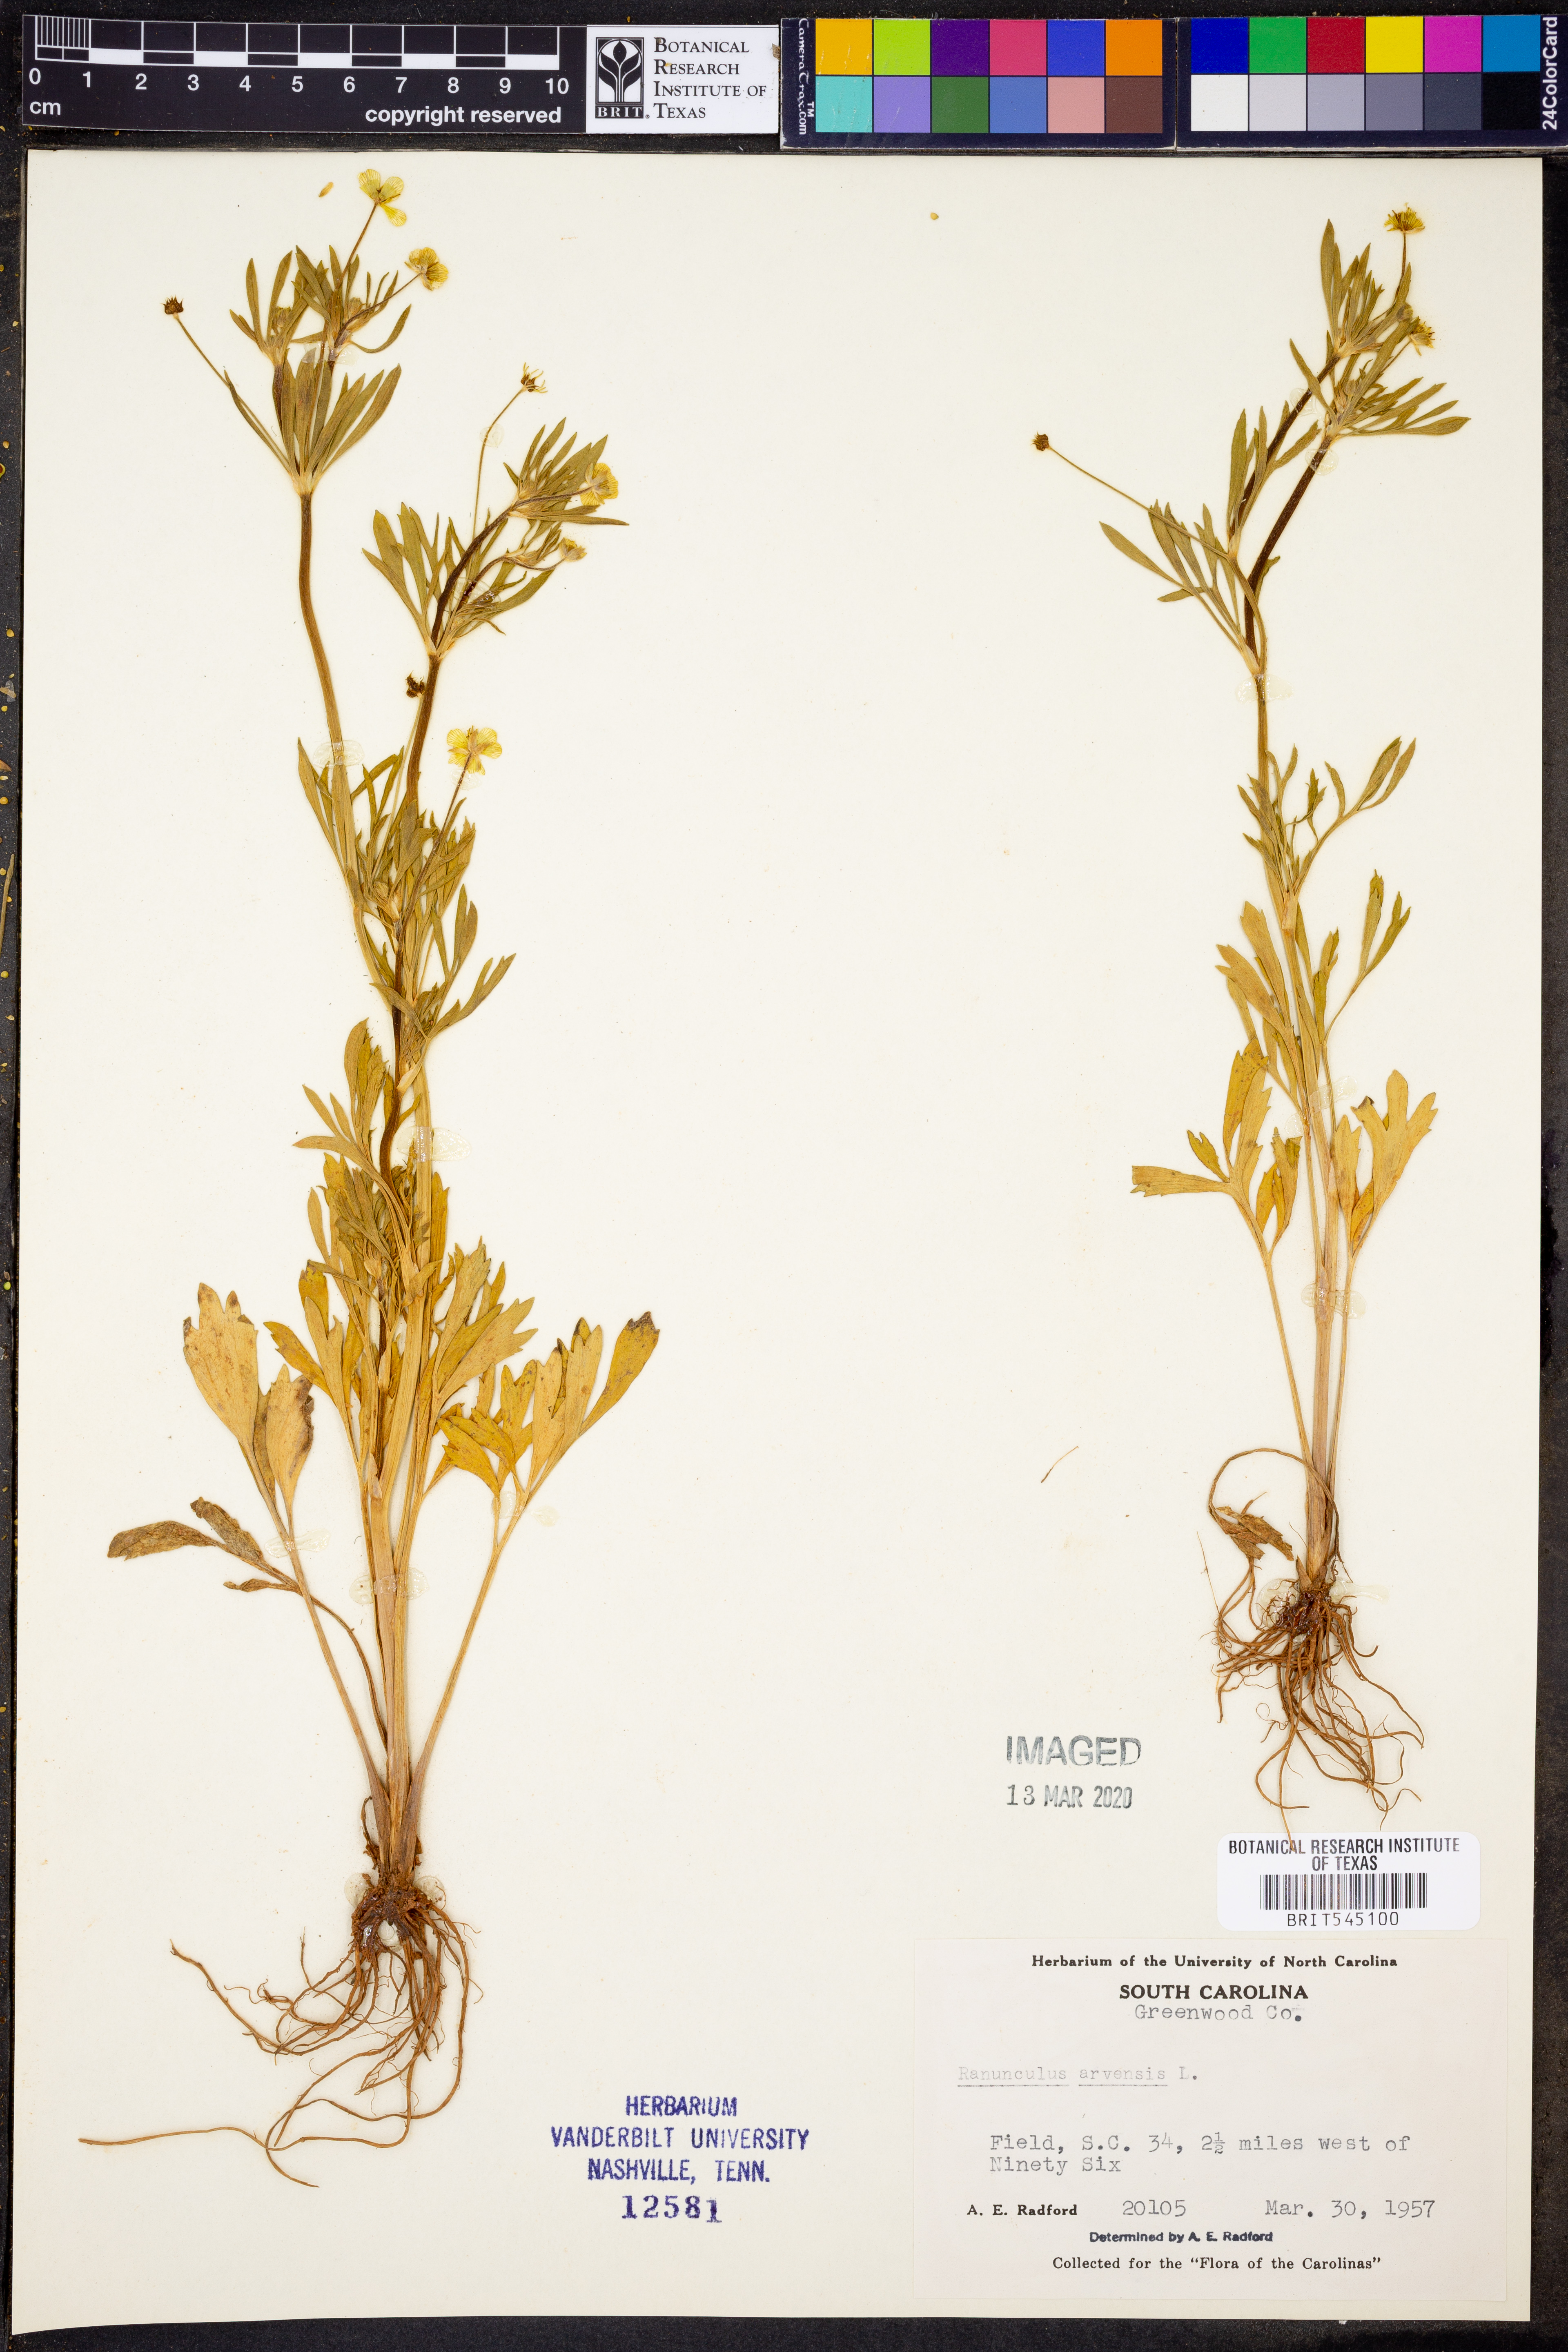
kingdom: Plantae
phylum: Tracheophyta
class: Magnoliopsida
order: Ranunculales
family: Ranunculaceae
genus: Ranunculus
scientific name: Ranunculus arvensis
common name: Corn buttercup
